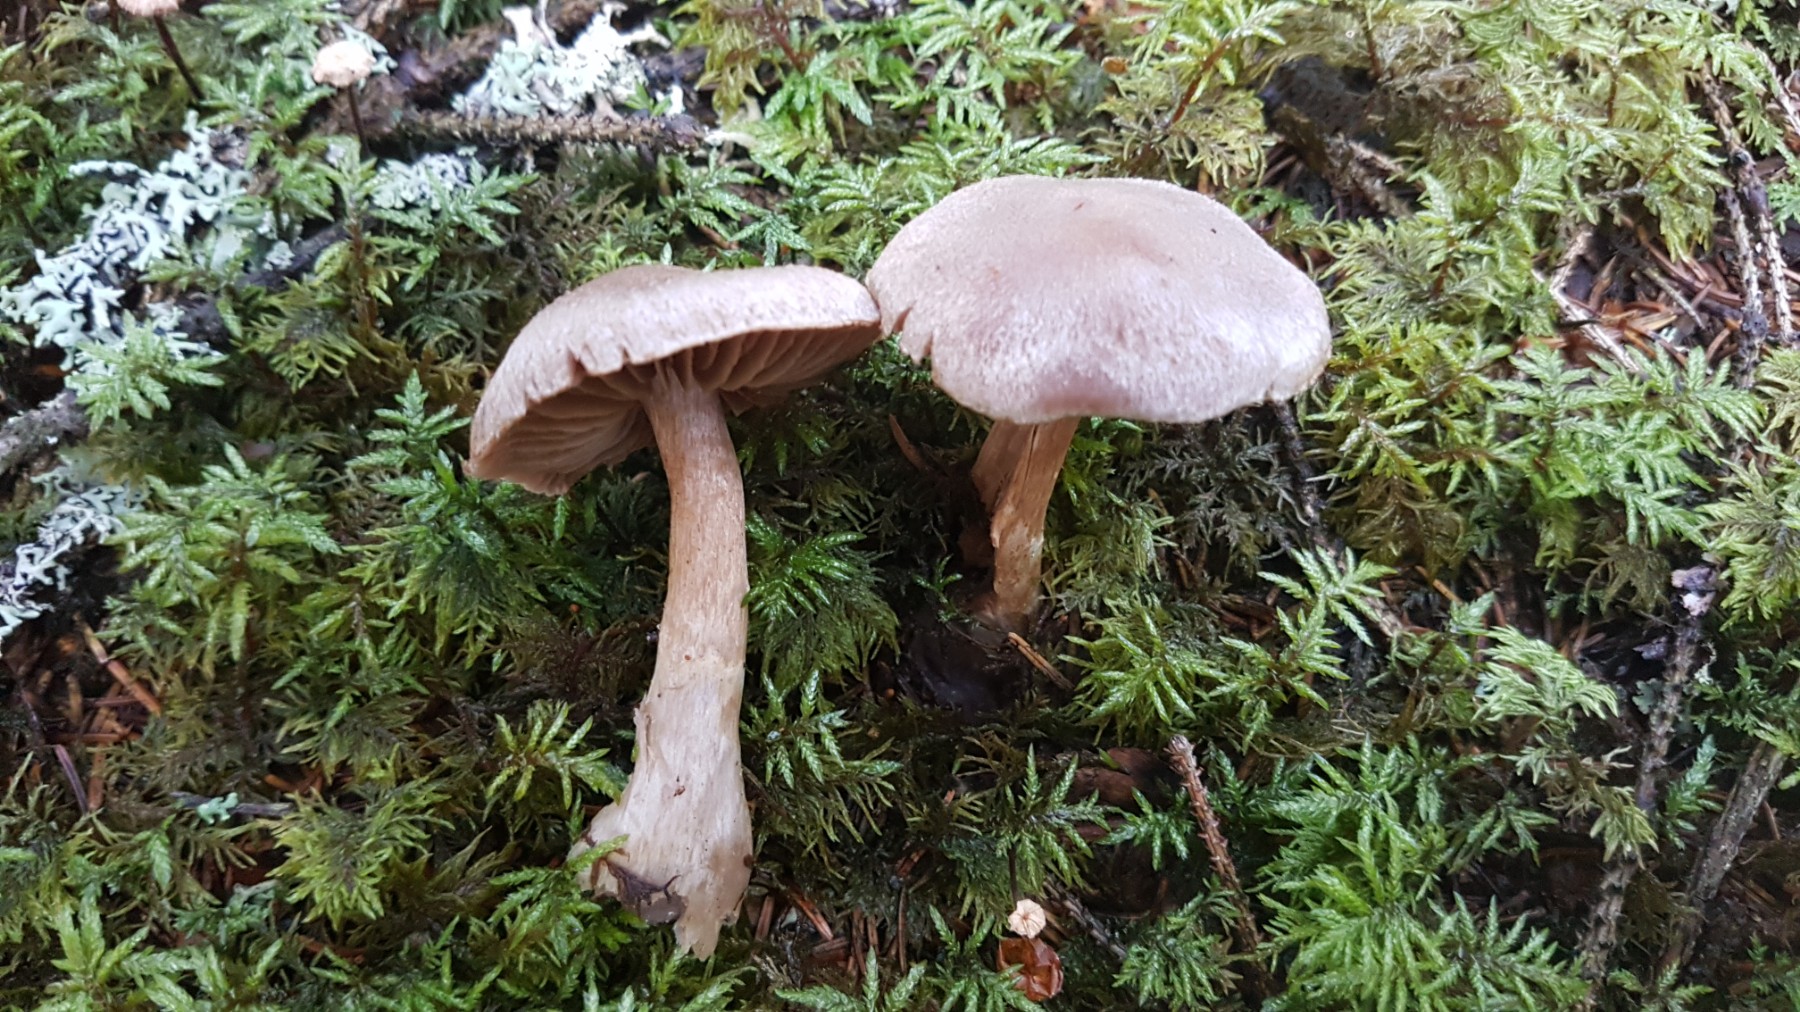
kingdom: Fungi
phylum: Basidiomycota
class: Agaricomycetes
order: Agaricales
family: Cortinariaceae
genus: Cortinarius
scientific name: Cortinarius malachius
